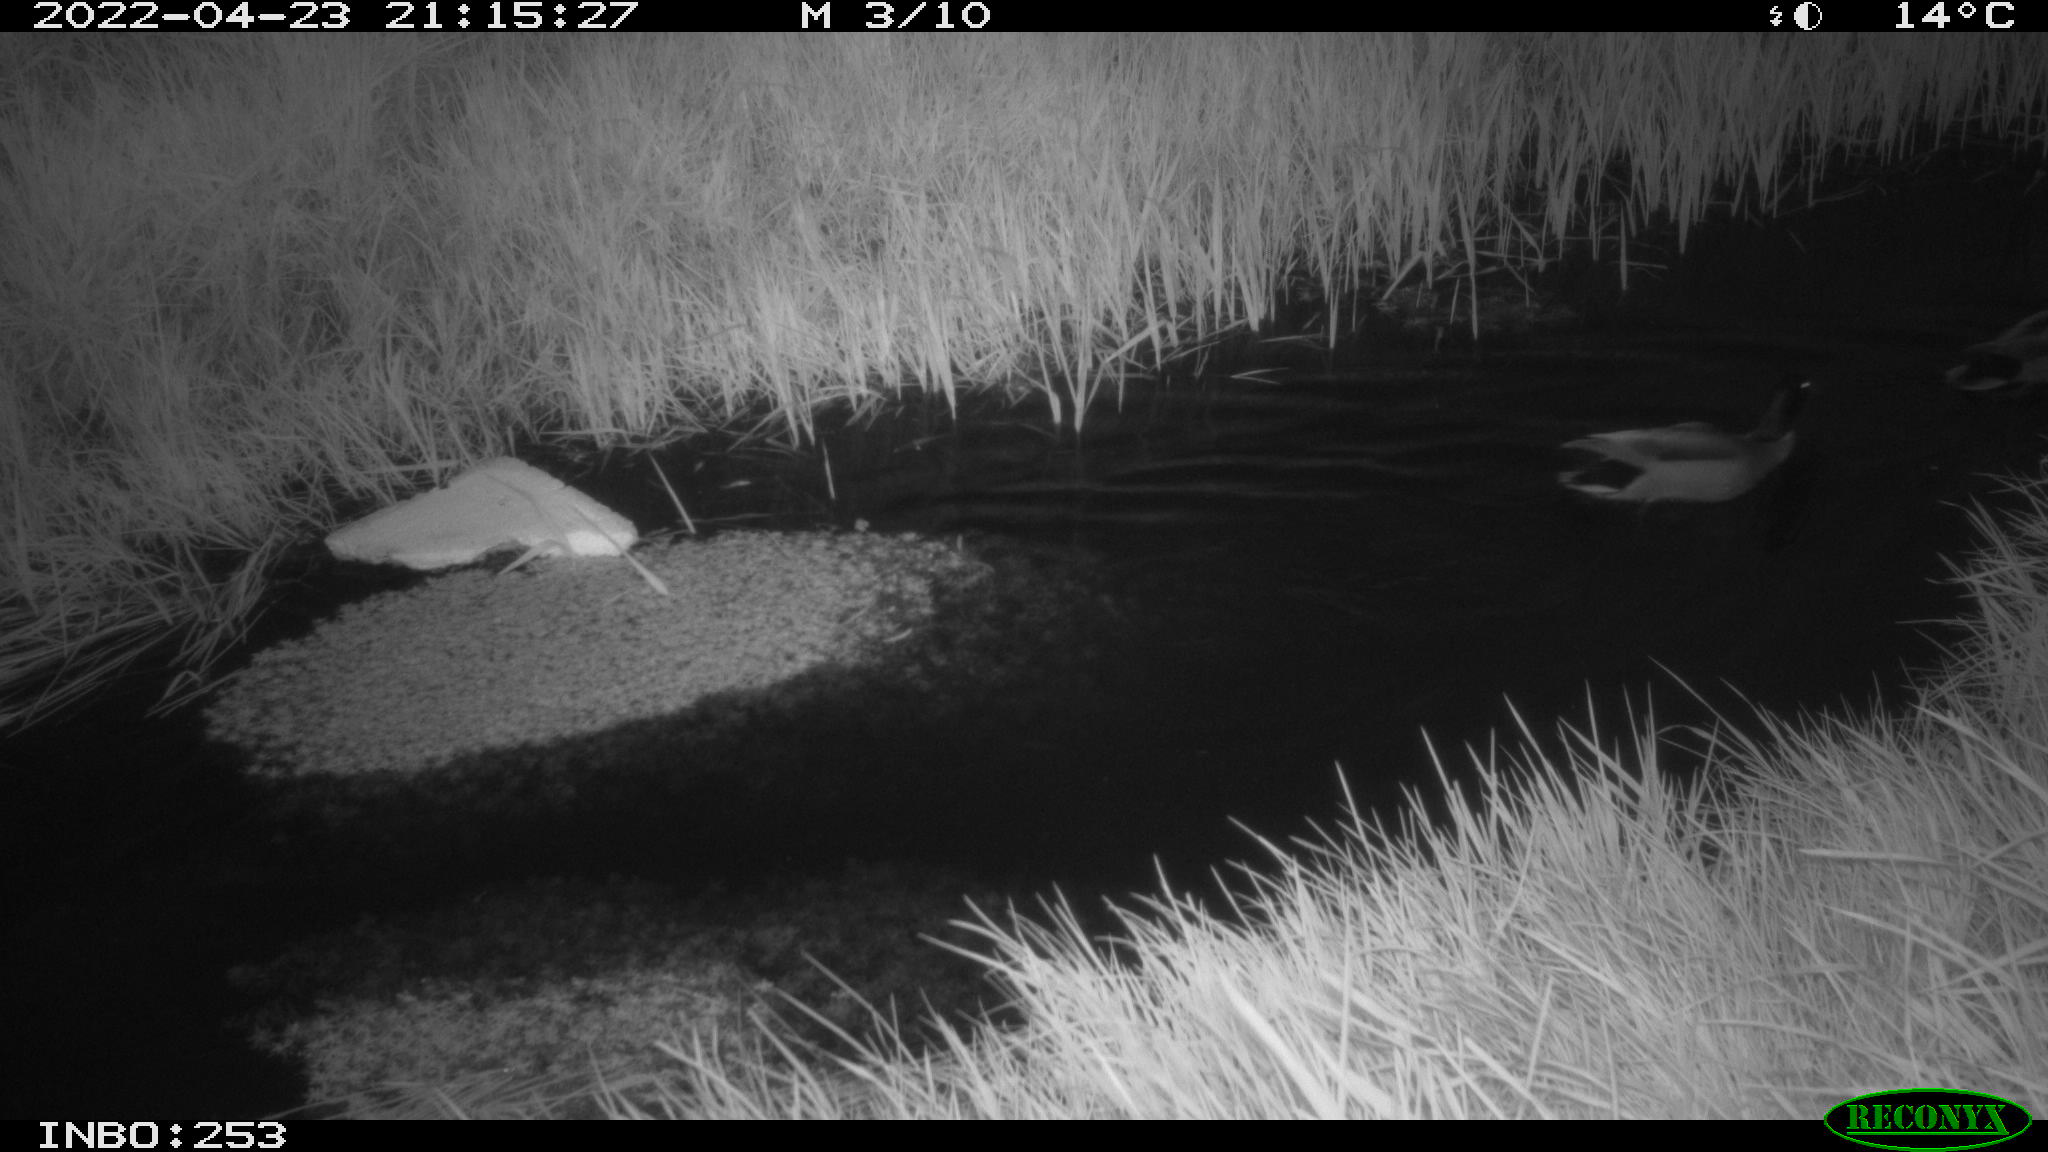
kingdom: Animalia
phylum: Chordata
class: Aves
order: Anseriformes
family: Anatidae
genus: Anas
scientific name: Anas platyrhynchos
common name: Mallard
